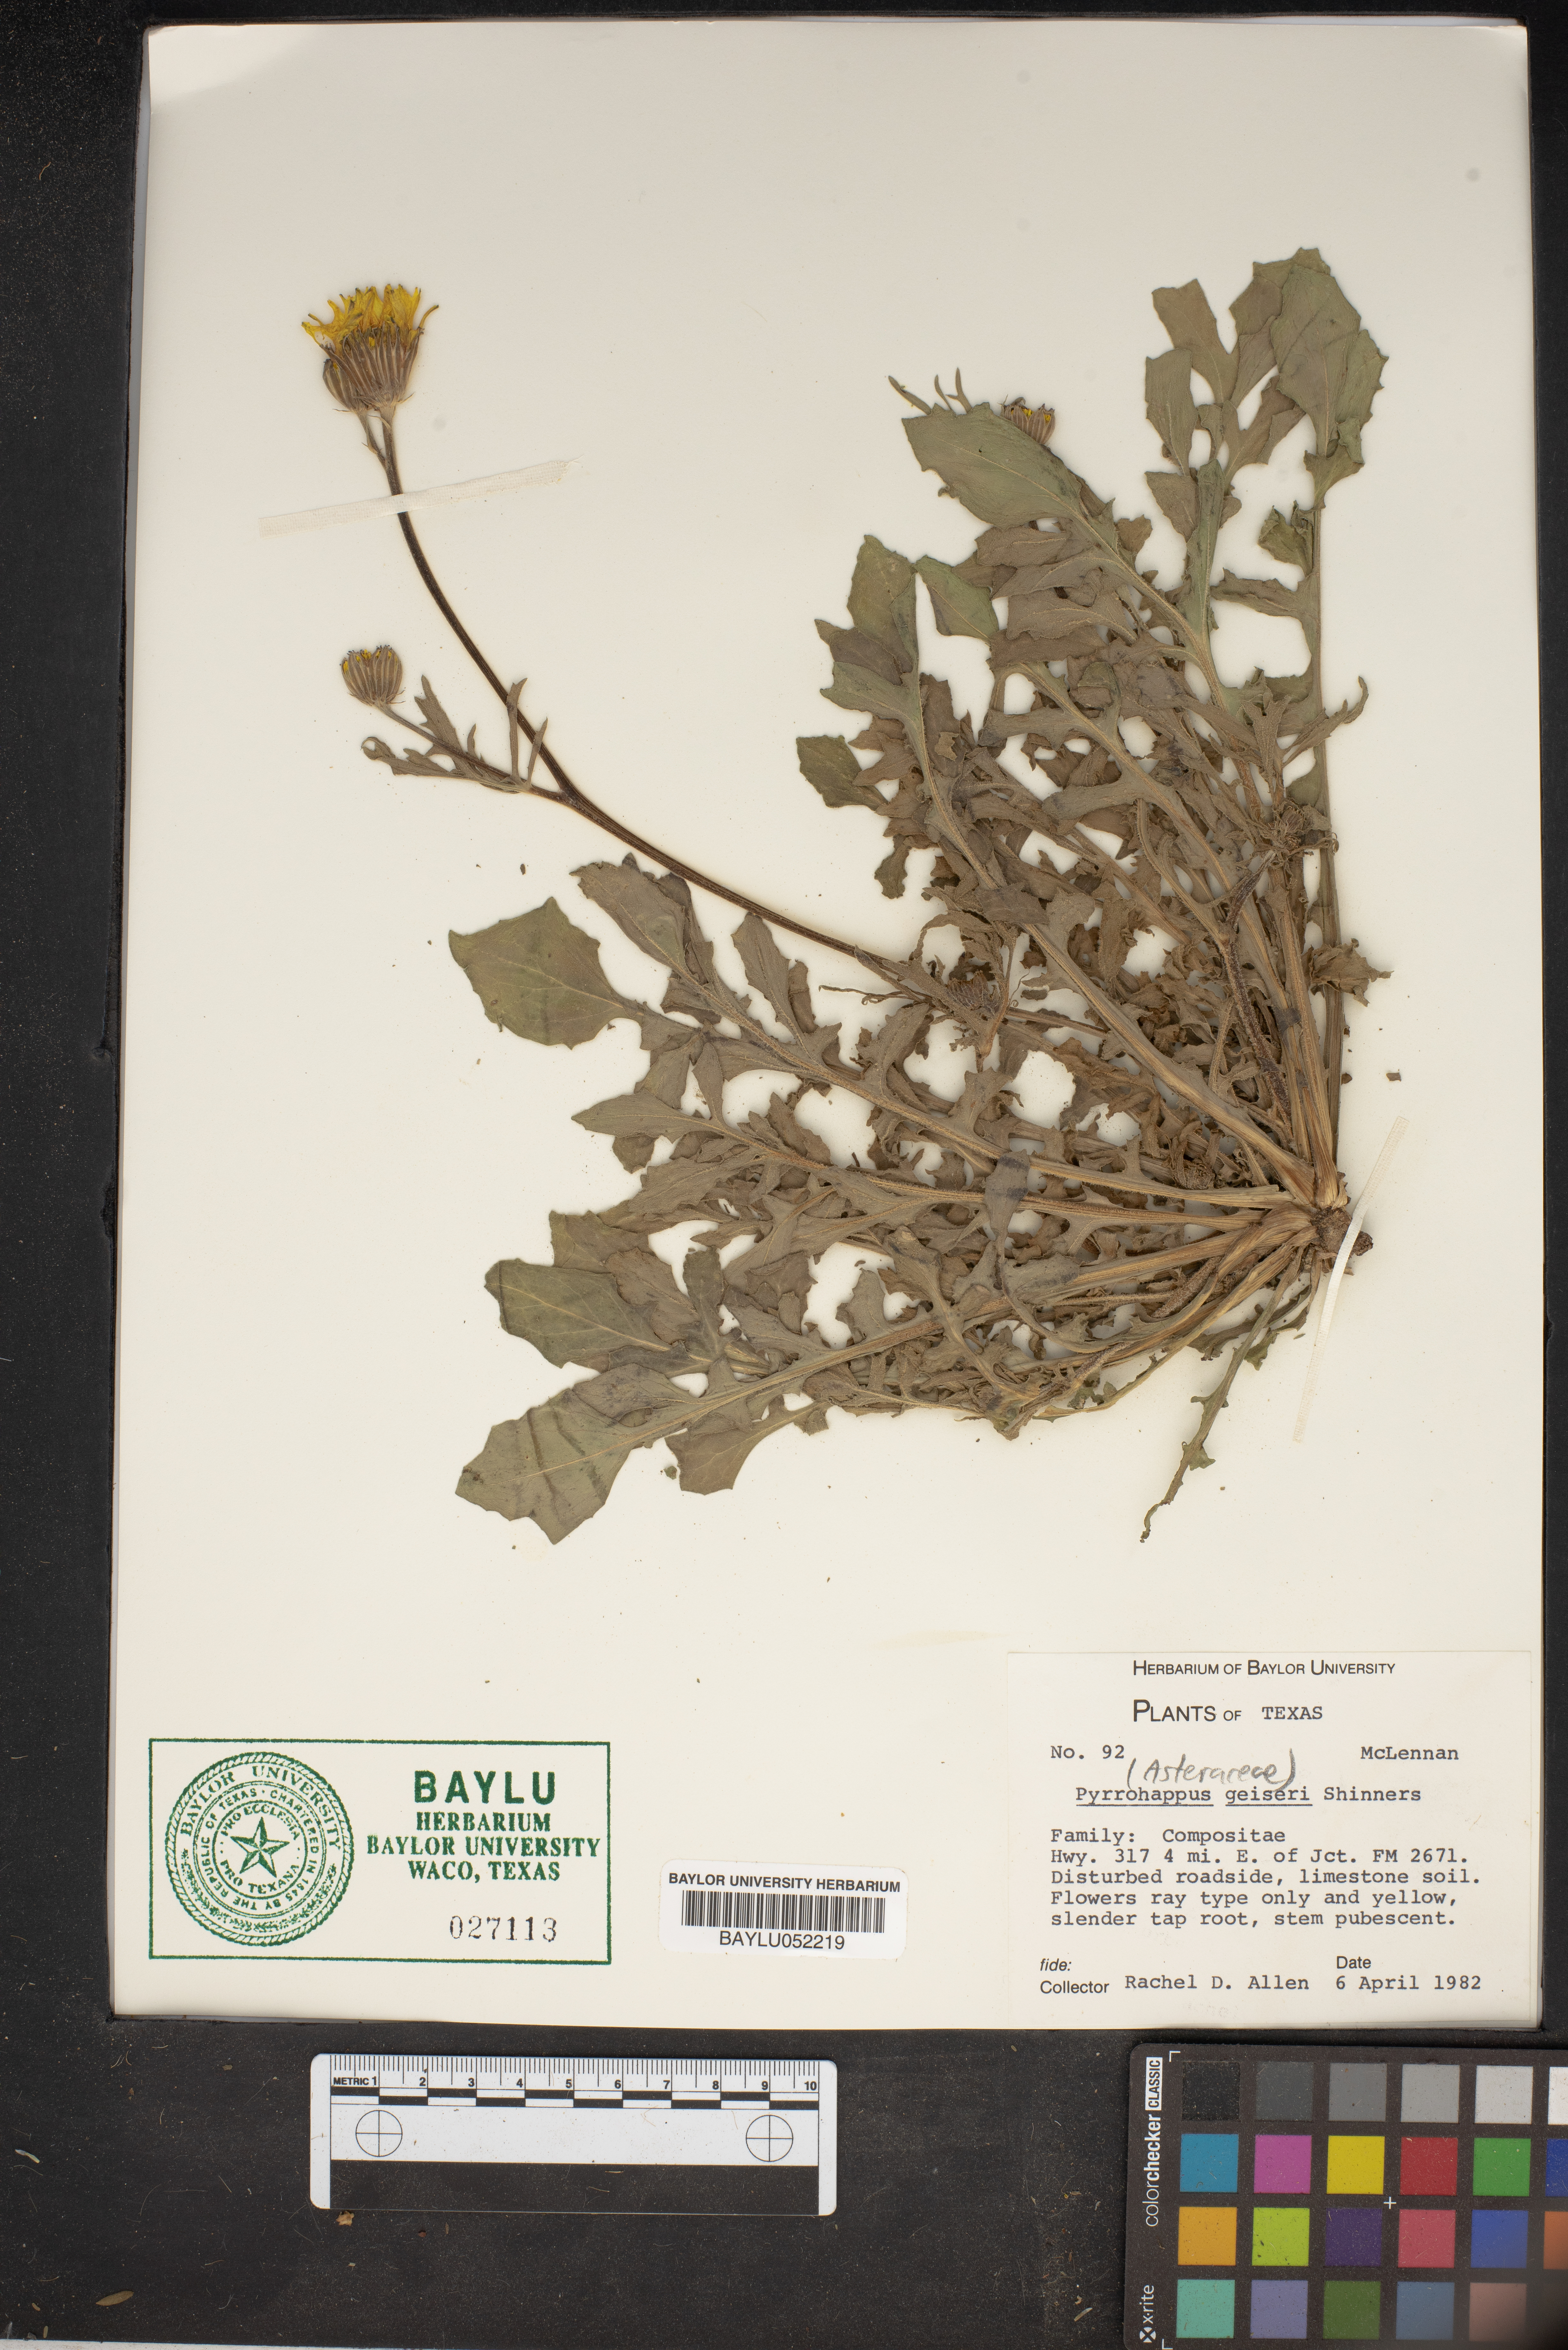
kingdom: Plantae
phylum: Tracheophyta
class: Magnoliopsida
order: Asterales
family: Asteraceae
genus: Pyrrhopappus
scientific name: Pyrrhopappus pauciflorus
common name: Texas false dandelion
